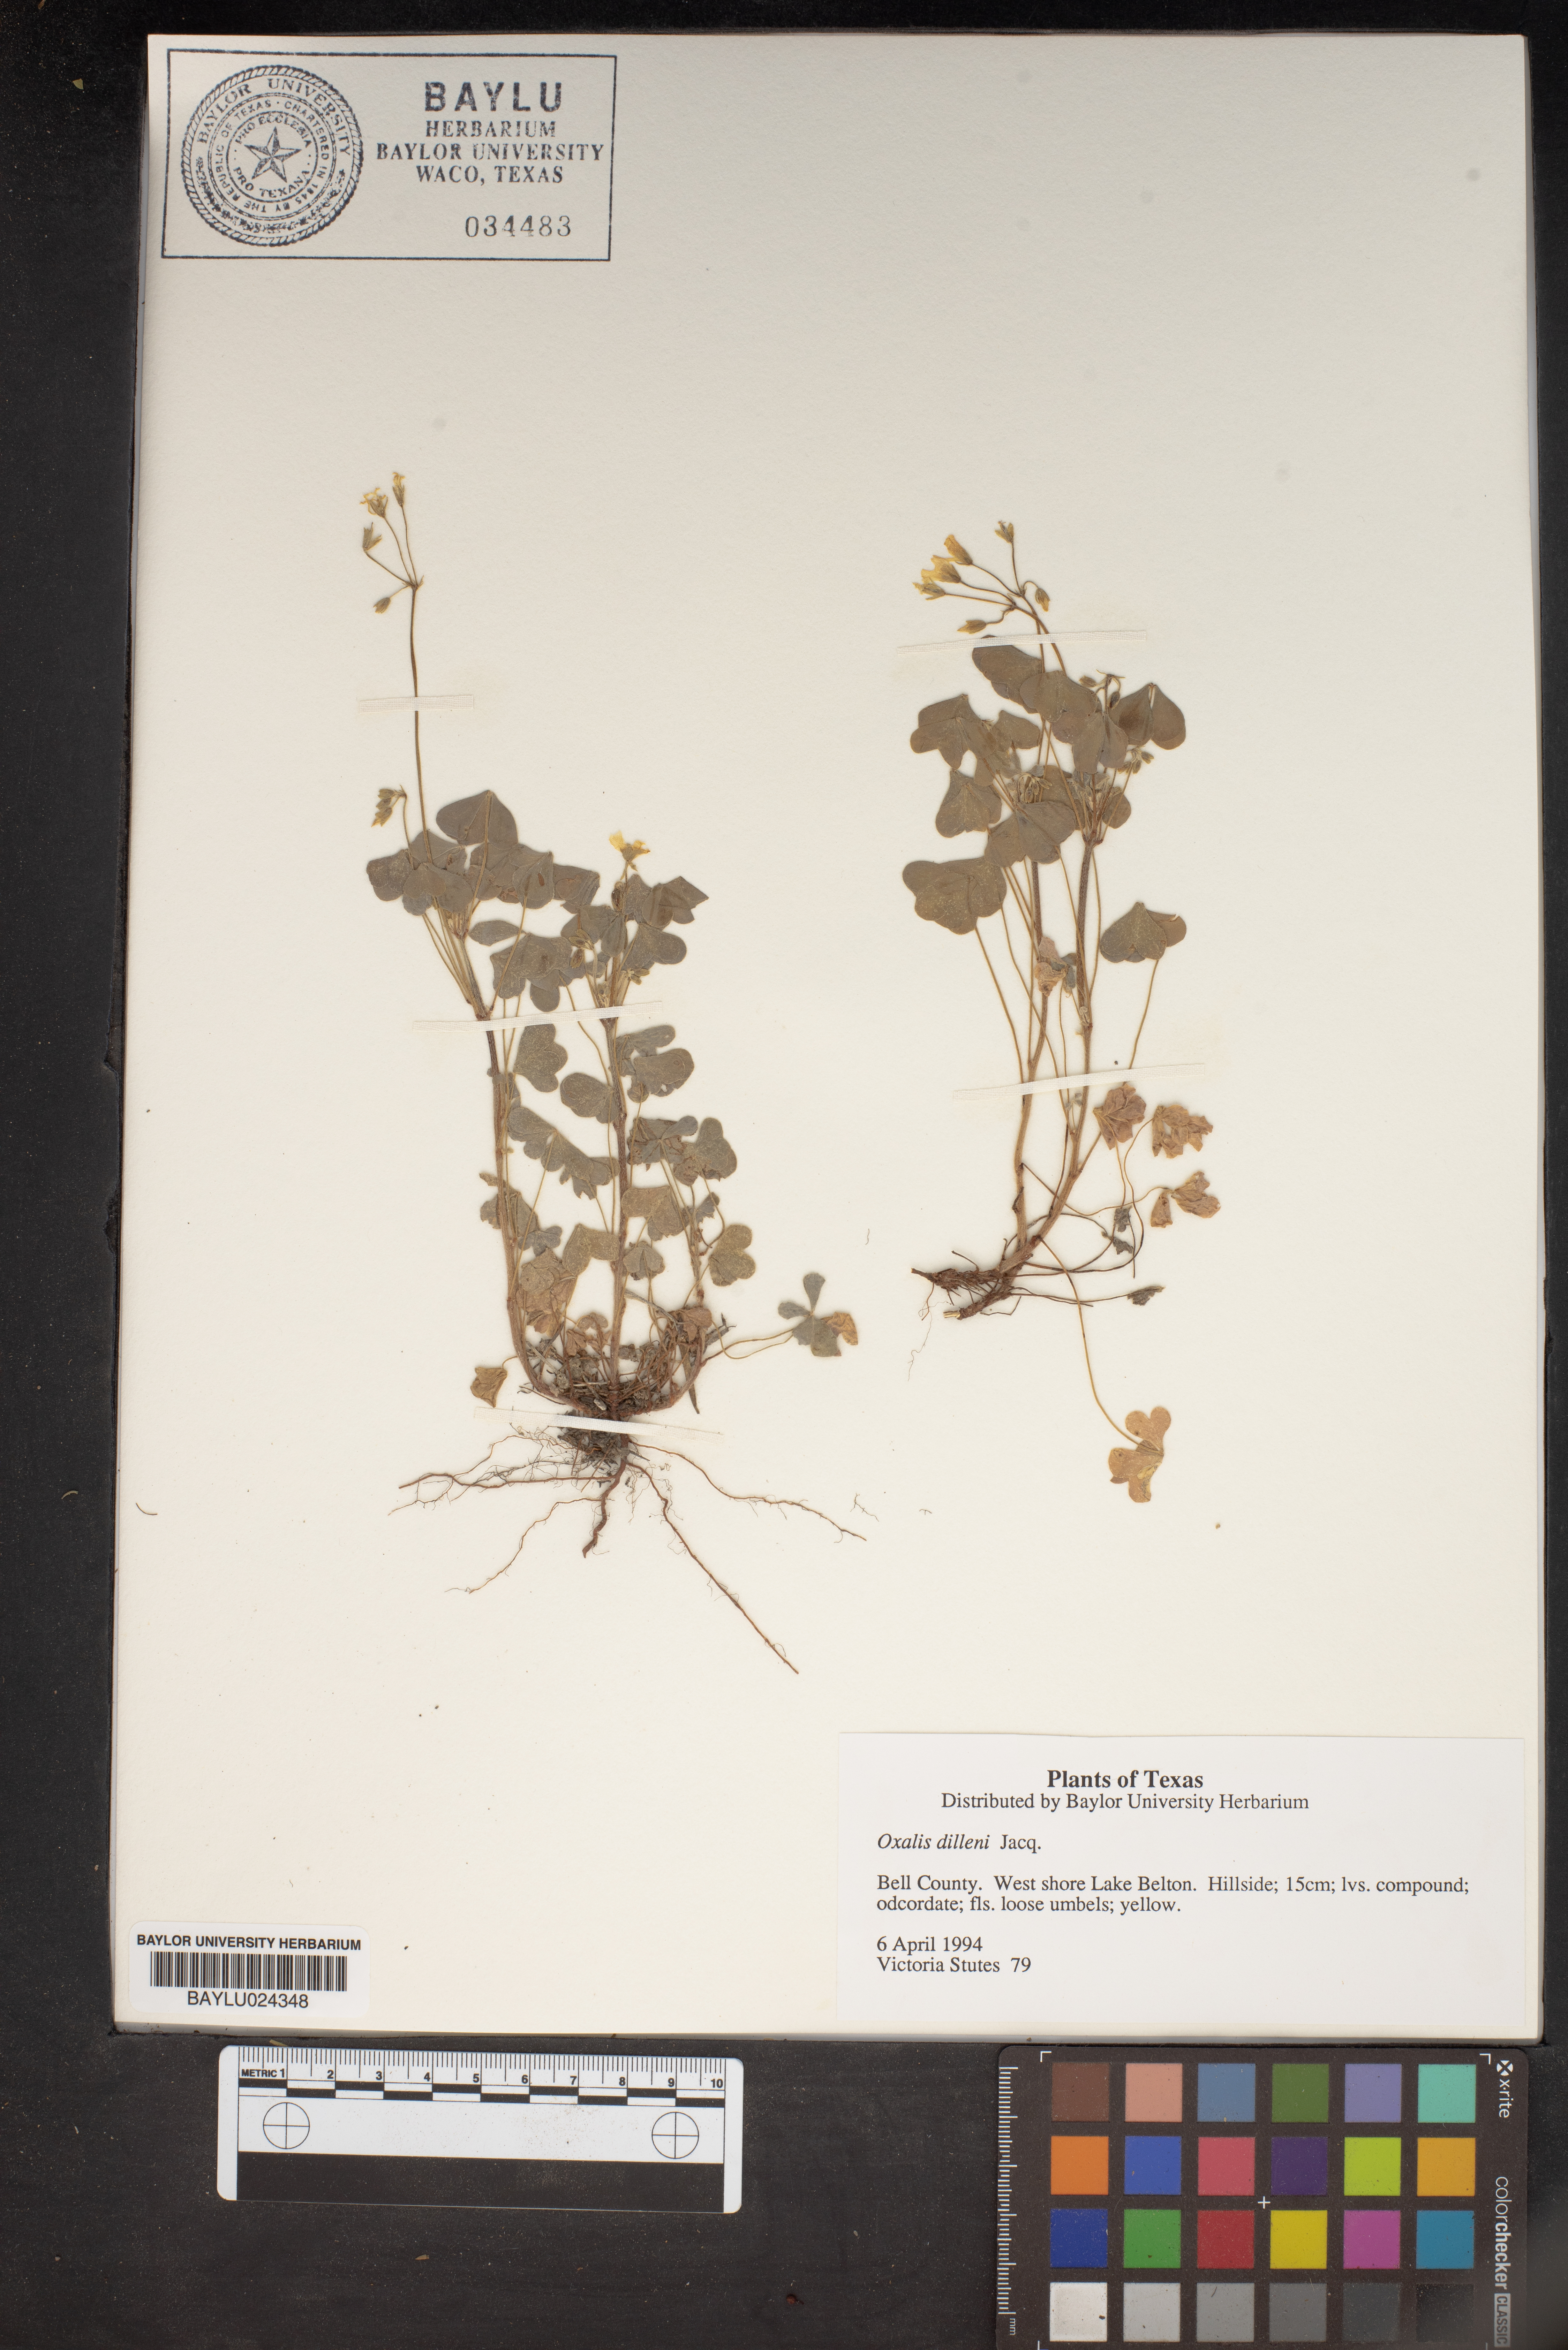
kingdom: Plantae
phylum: Tracheophyta
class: Magnoliopsida
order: Oxalidales
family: Oxalidaceae
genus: Oxalis
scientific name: Oxalis dillenii
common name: Sussex yellow-sorrel
